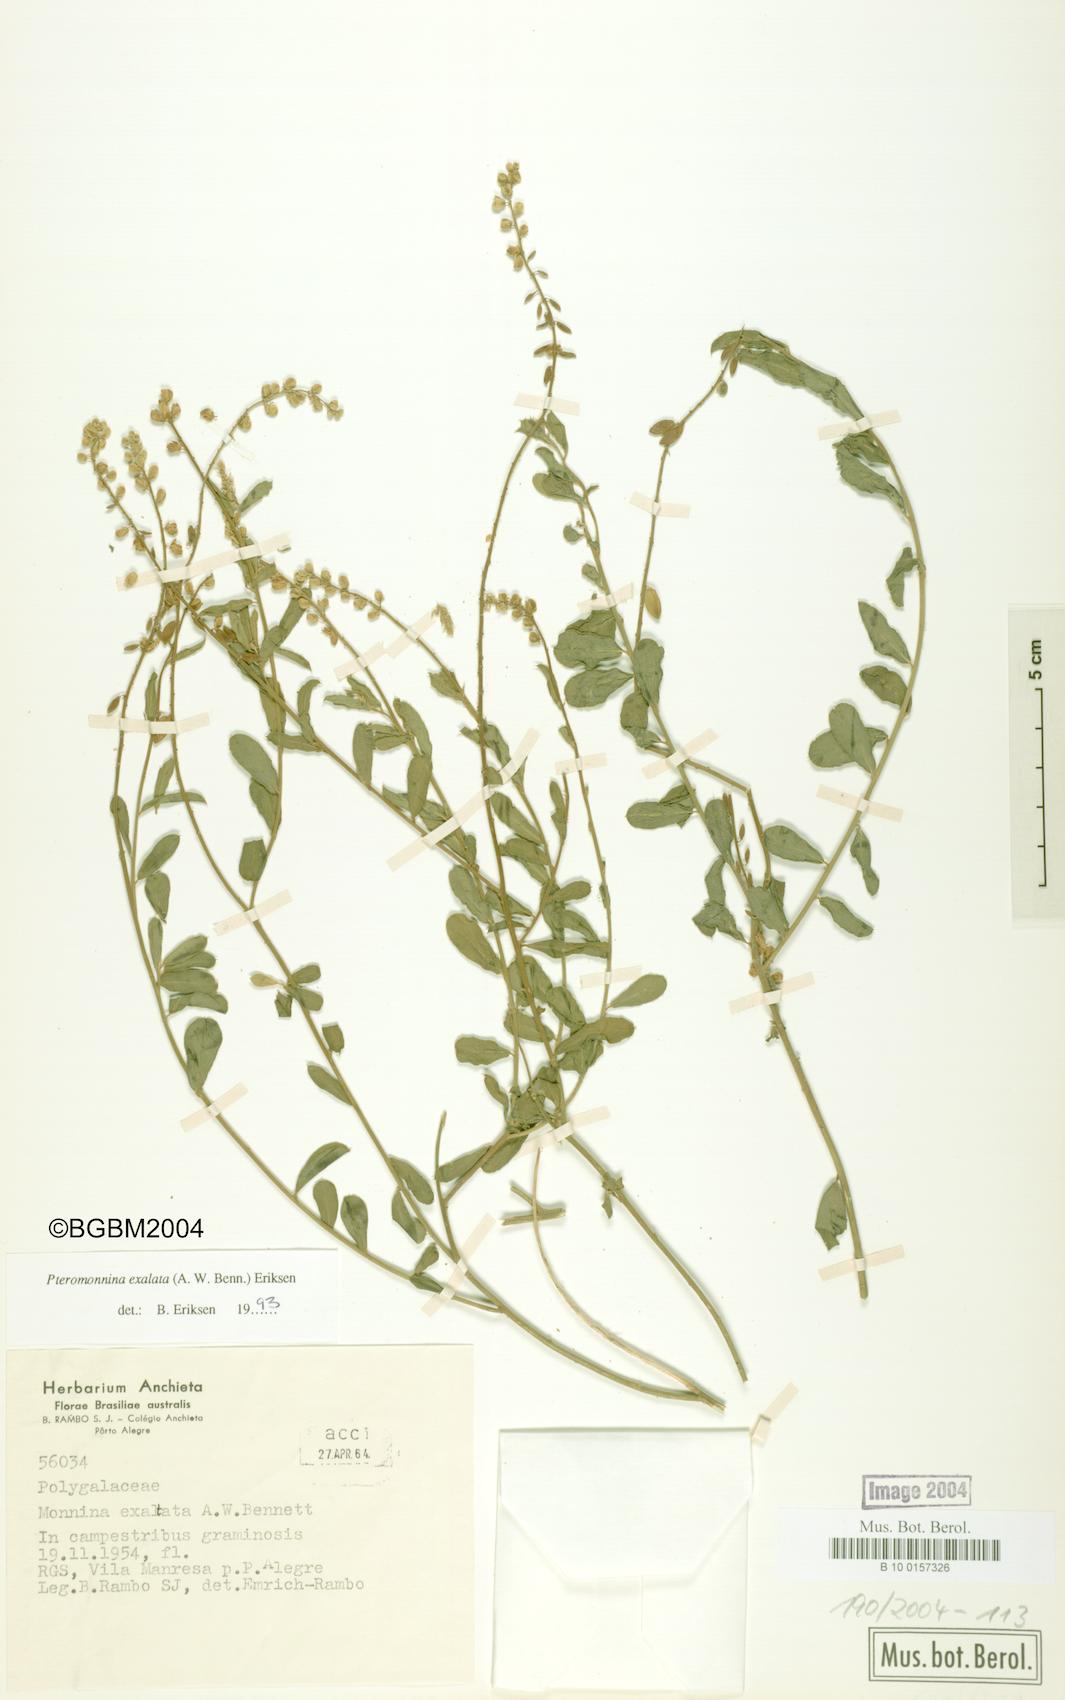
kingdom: Plantae
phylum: Tracheophyta
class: Magnoliopsida
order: Fabales
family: Polygalaceae
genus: Monnina
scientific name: Monnina exalata
